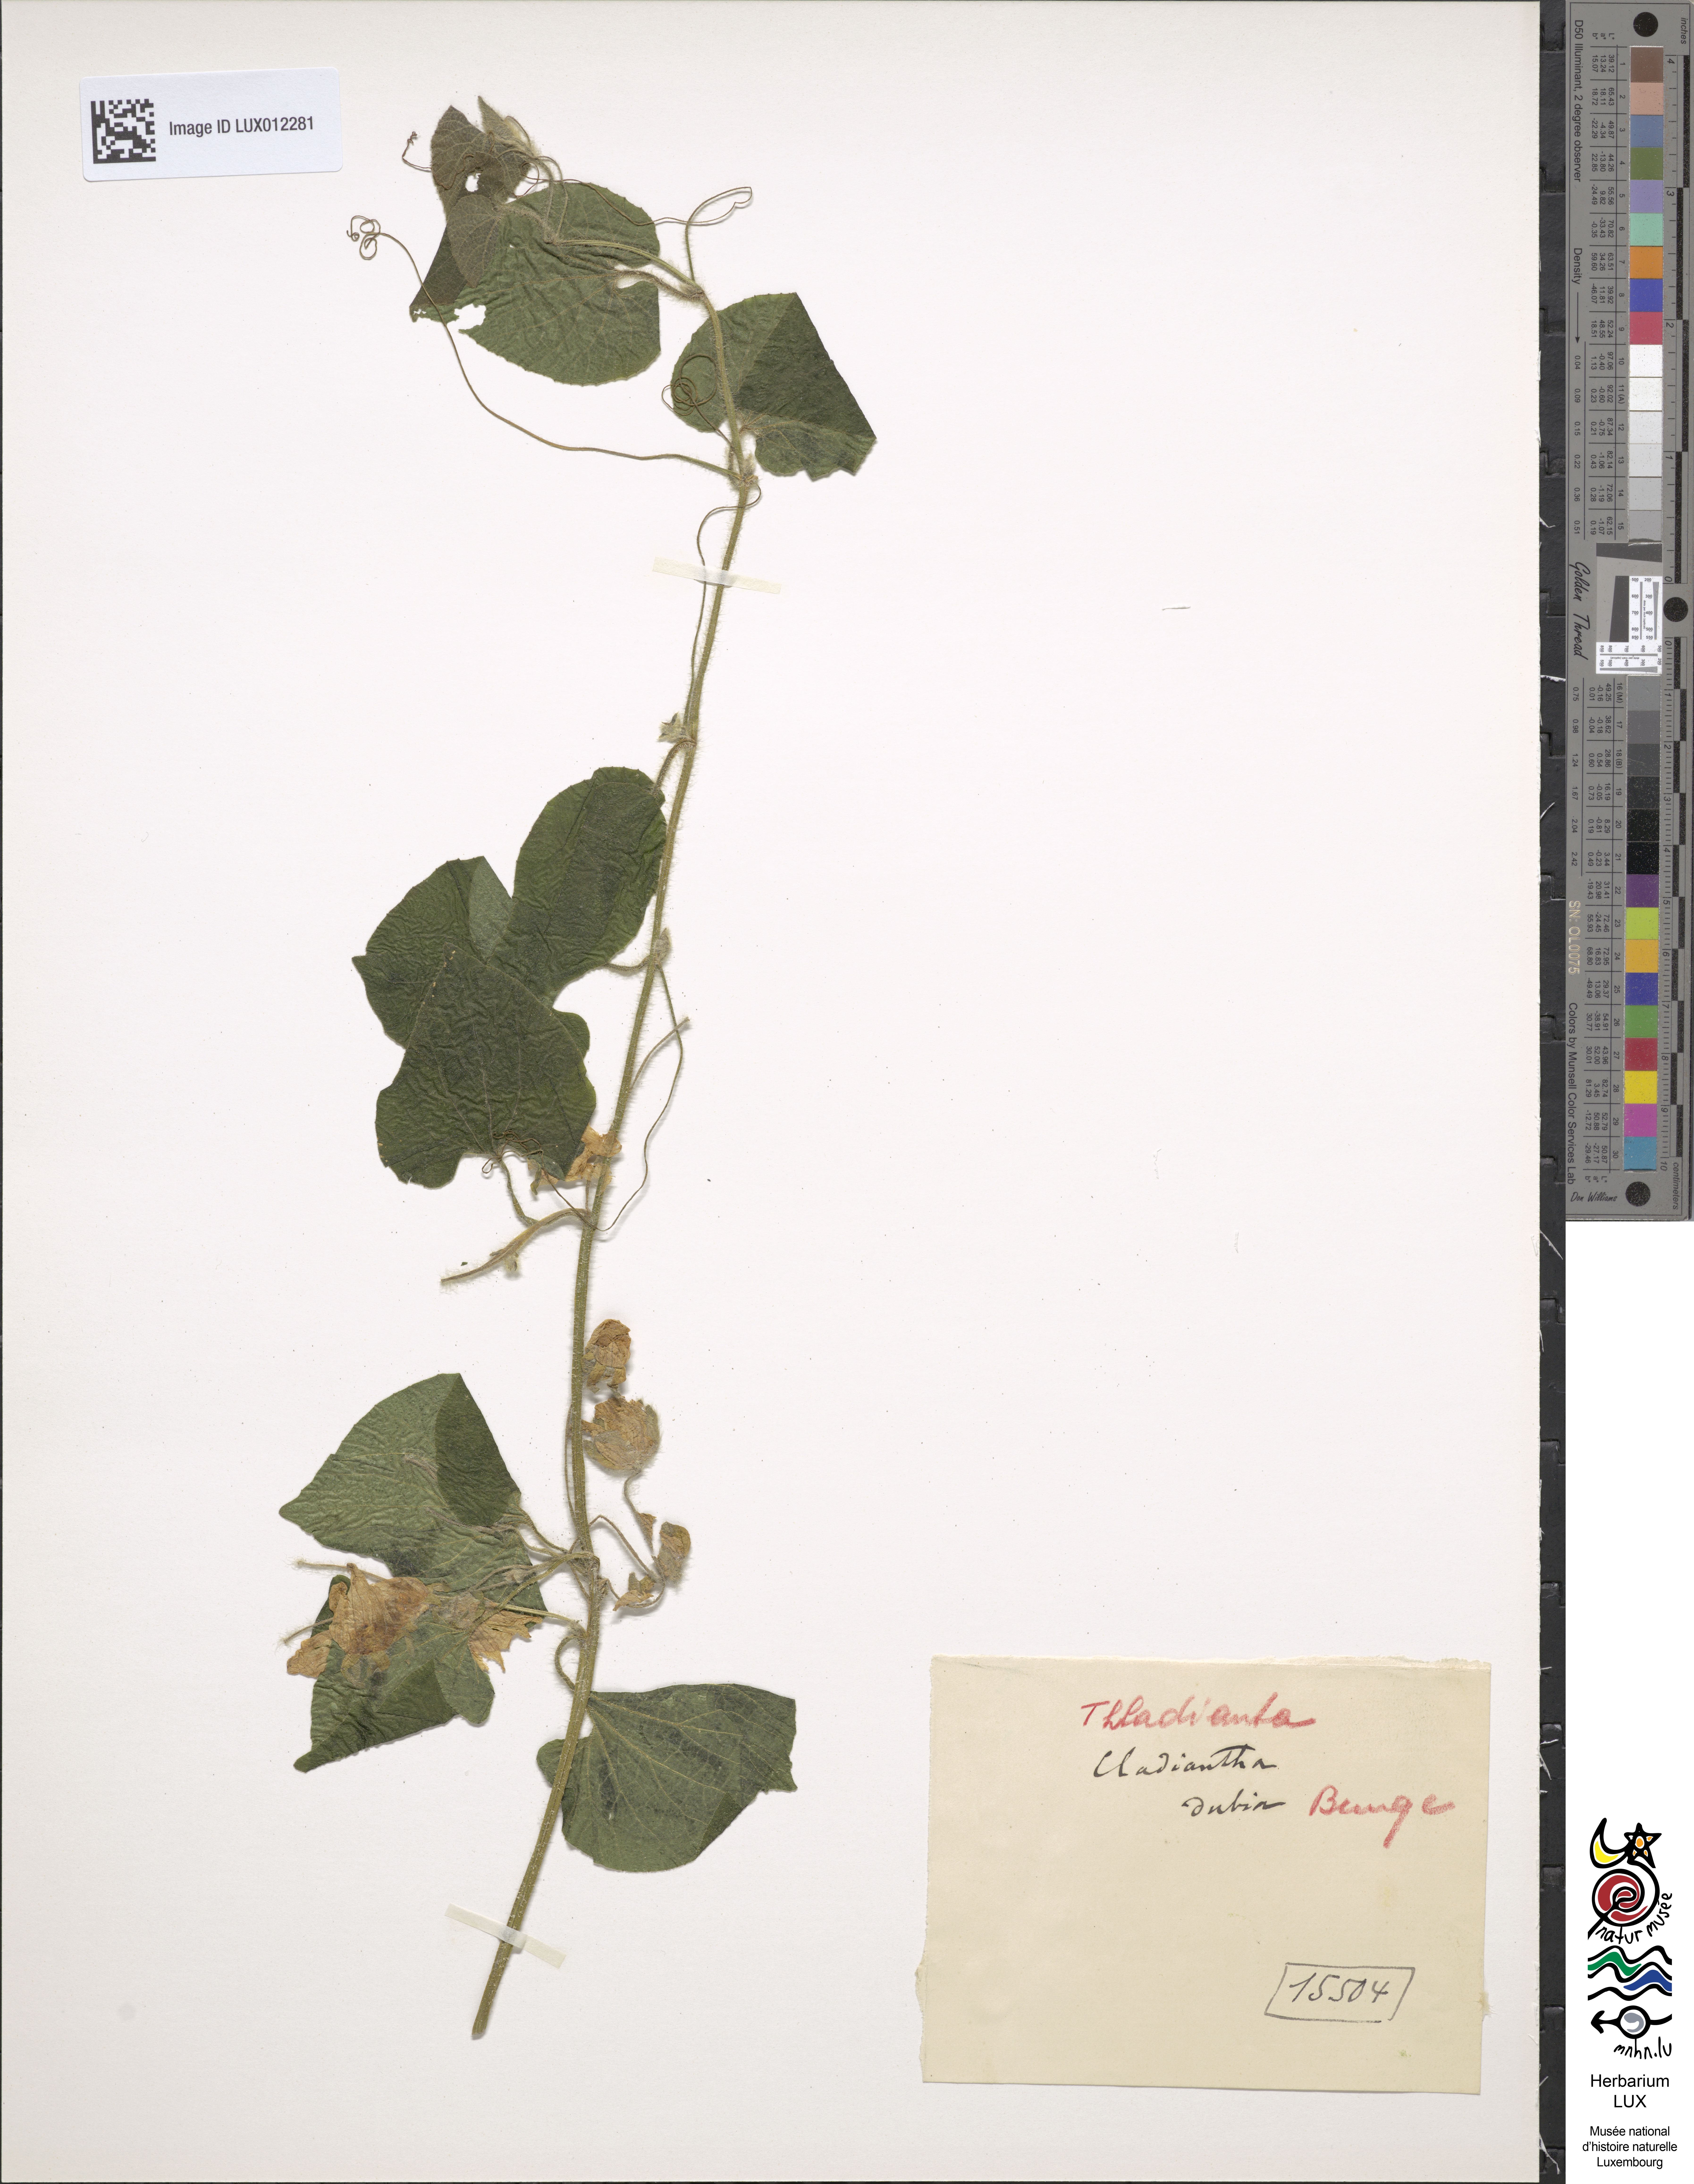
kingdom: Plantae
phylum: Tracheophyta
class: Magnoliopsida
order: Cucurbitales
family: Cucurbitaceae
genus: Thladiantha
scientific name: Thladiantha dubia
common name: Manchu tubergourd
